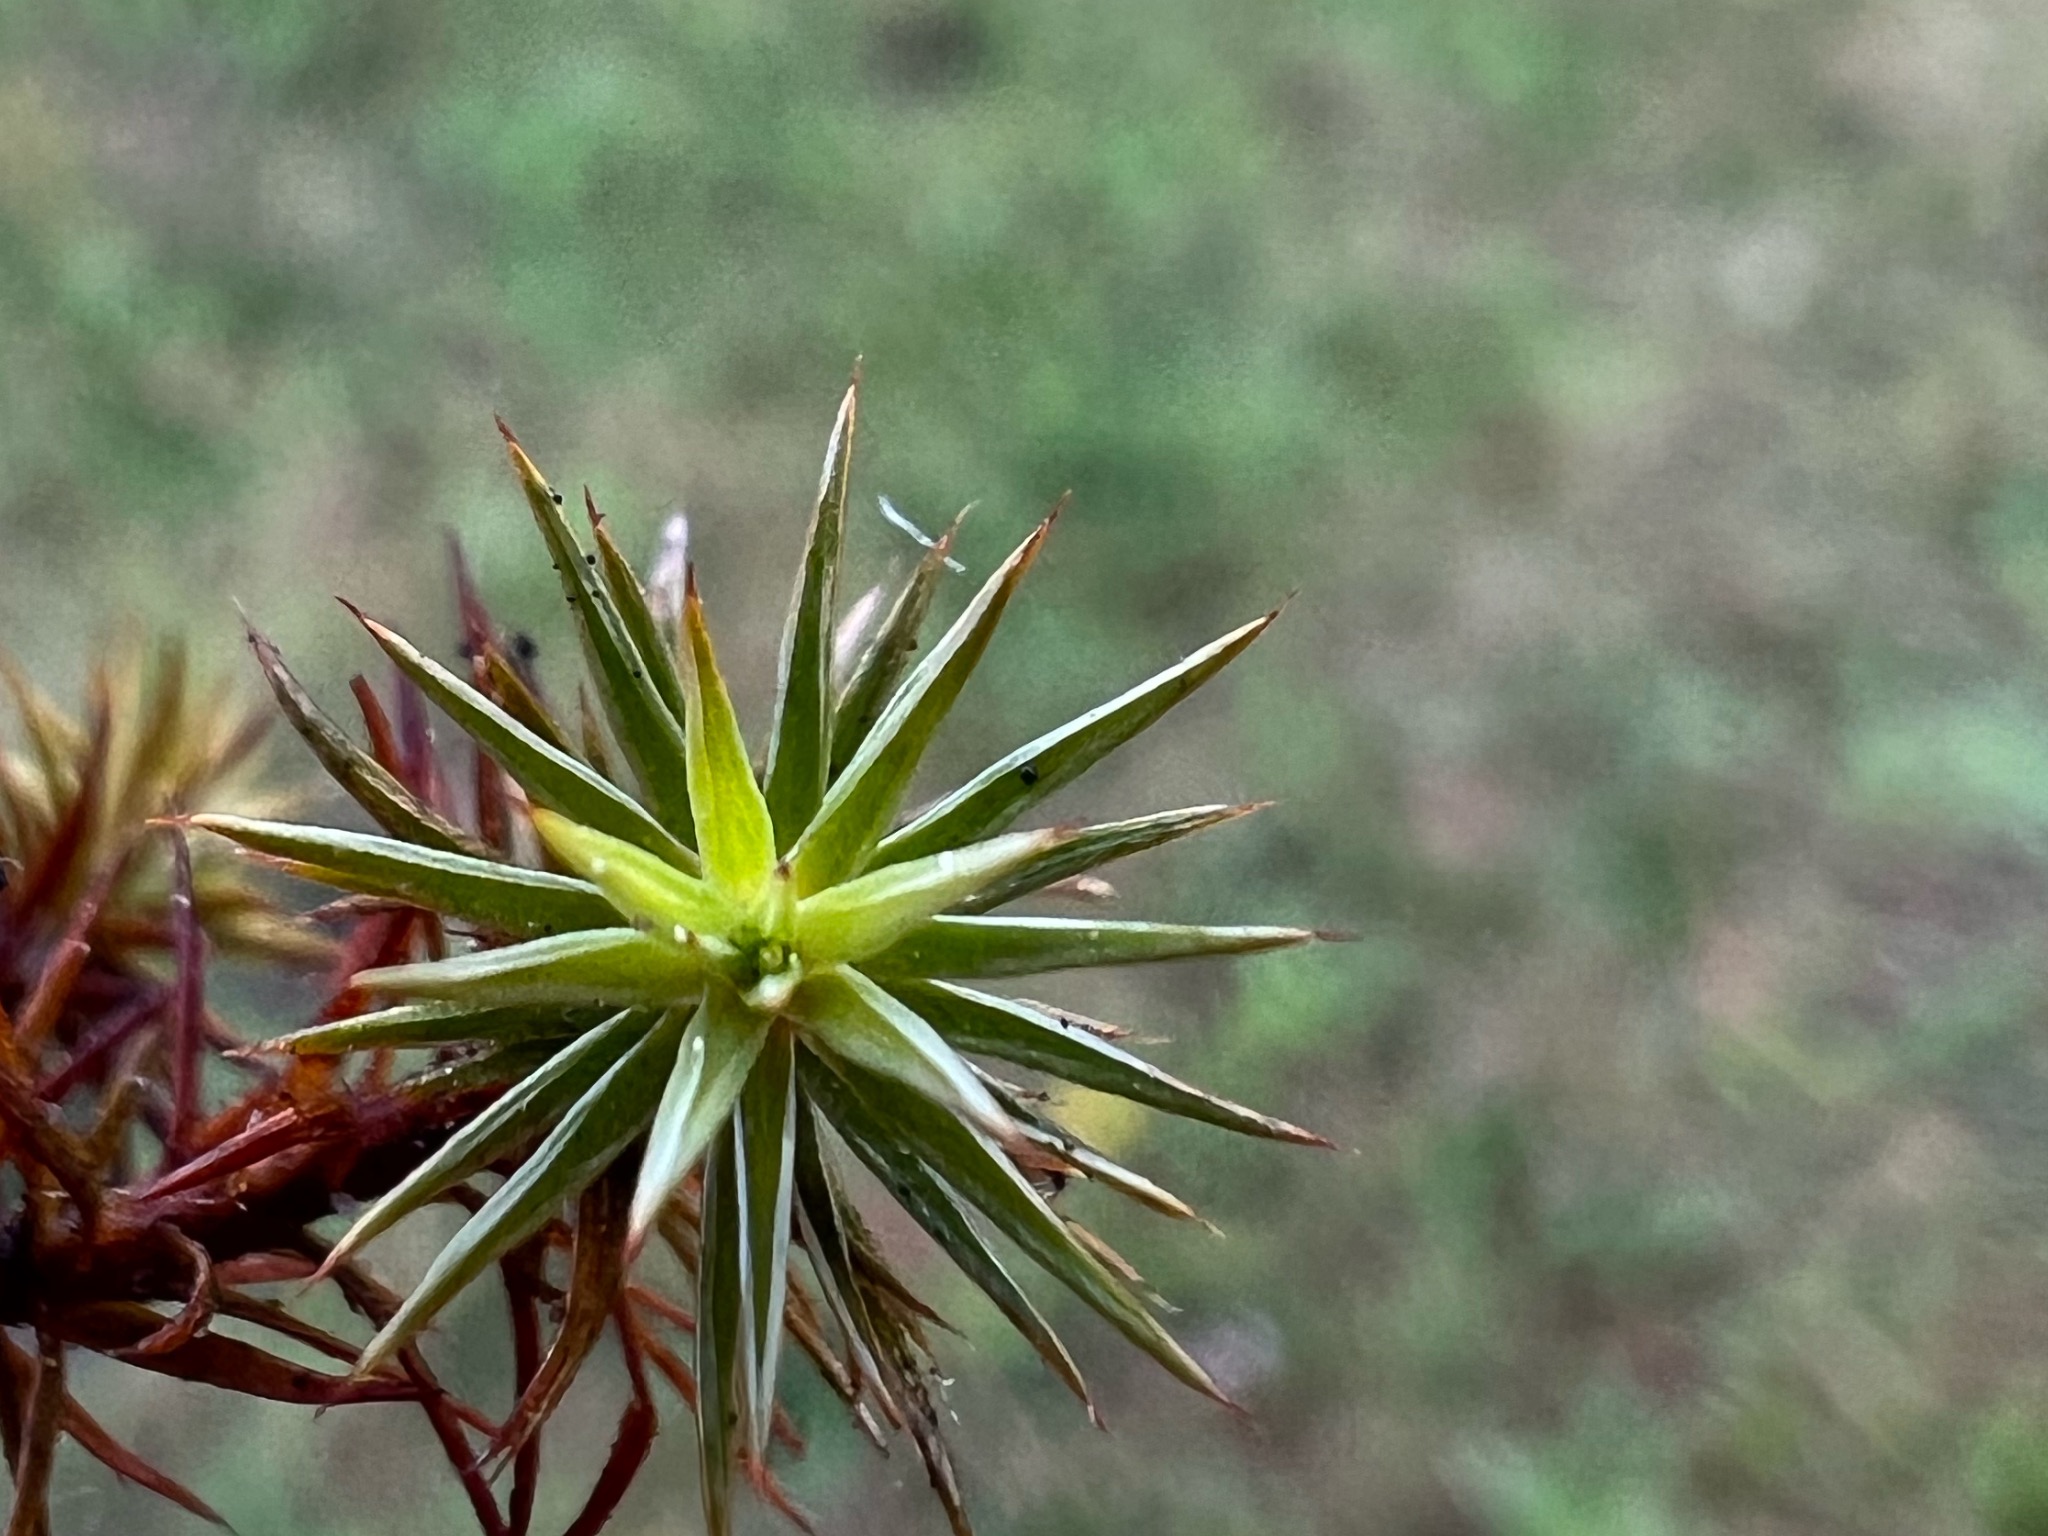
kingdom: Plantae
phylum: Bryophyta
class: Polytrichopsida
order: Polytrichales
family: Polytrichaceae
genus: Polytrichum
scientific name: Polytrichum juniperinum
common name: Ene-jomfruhår
